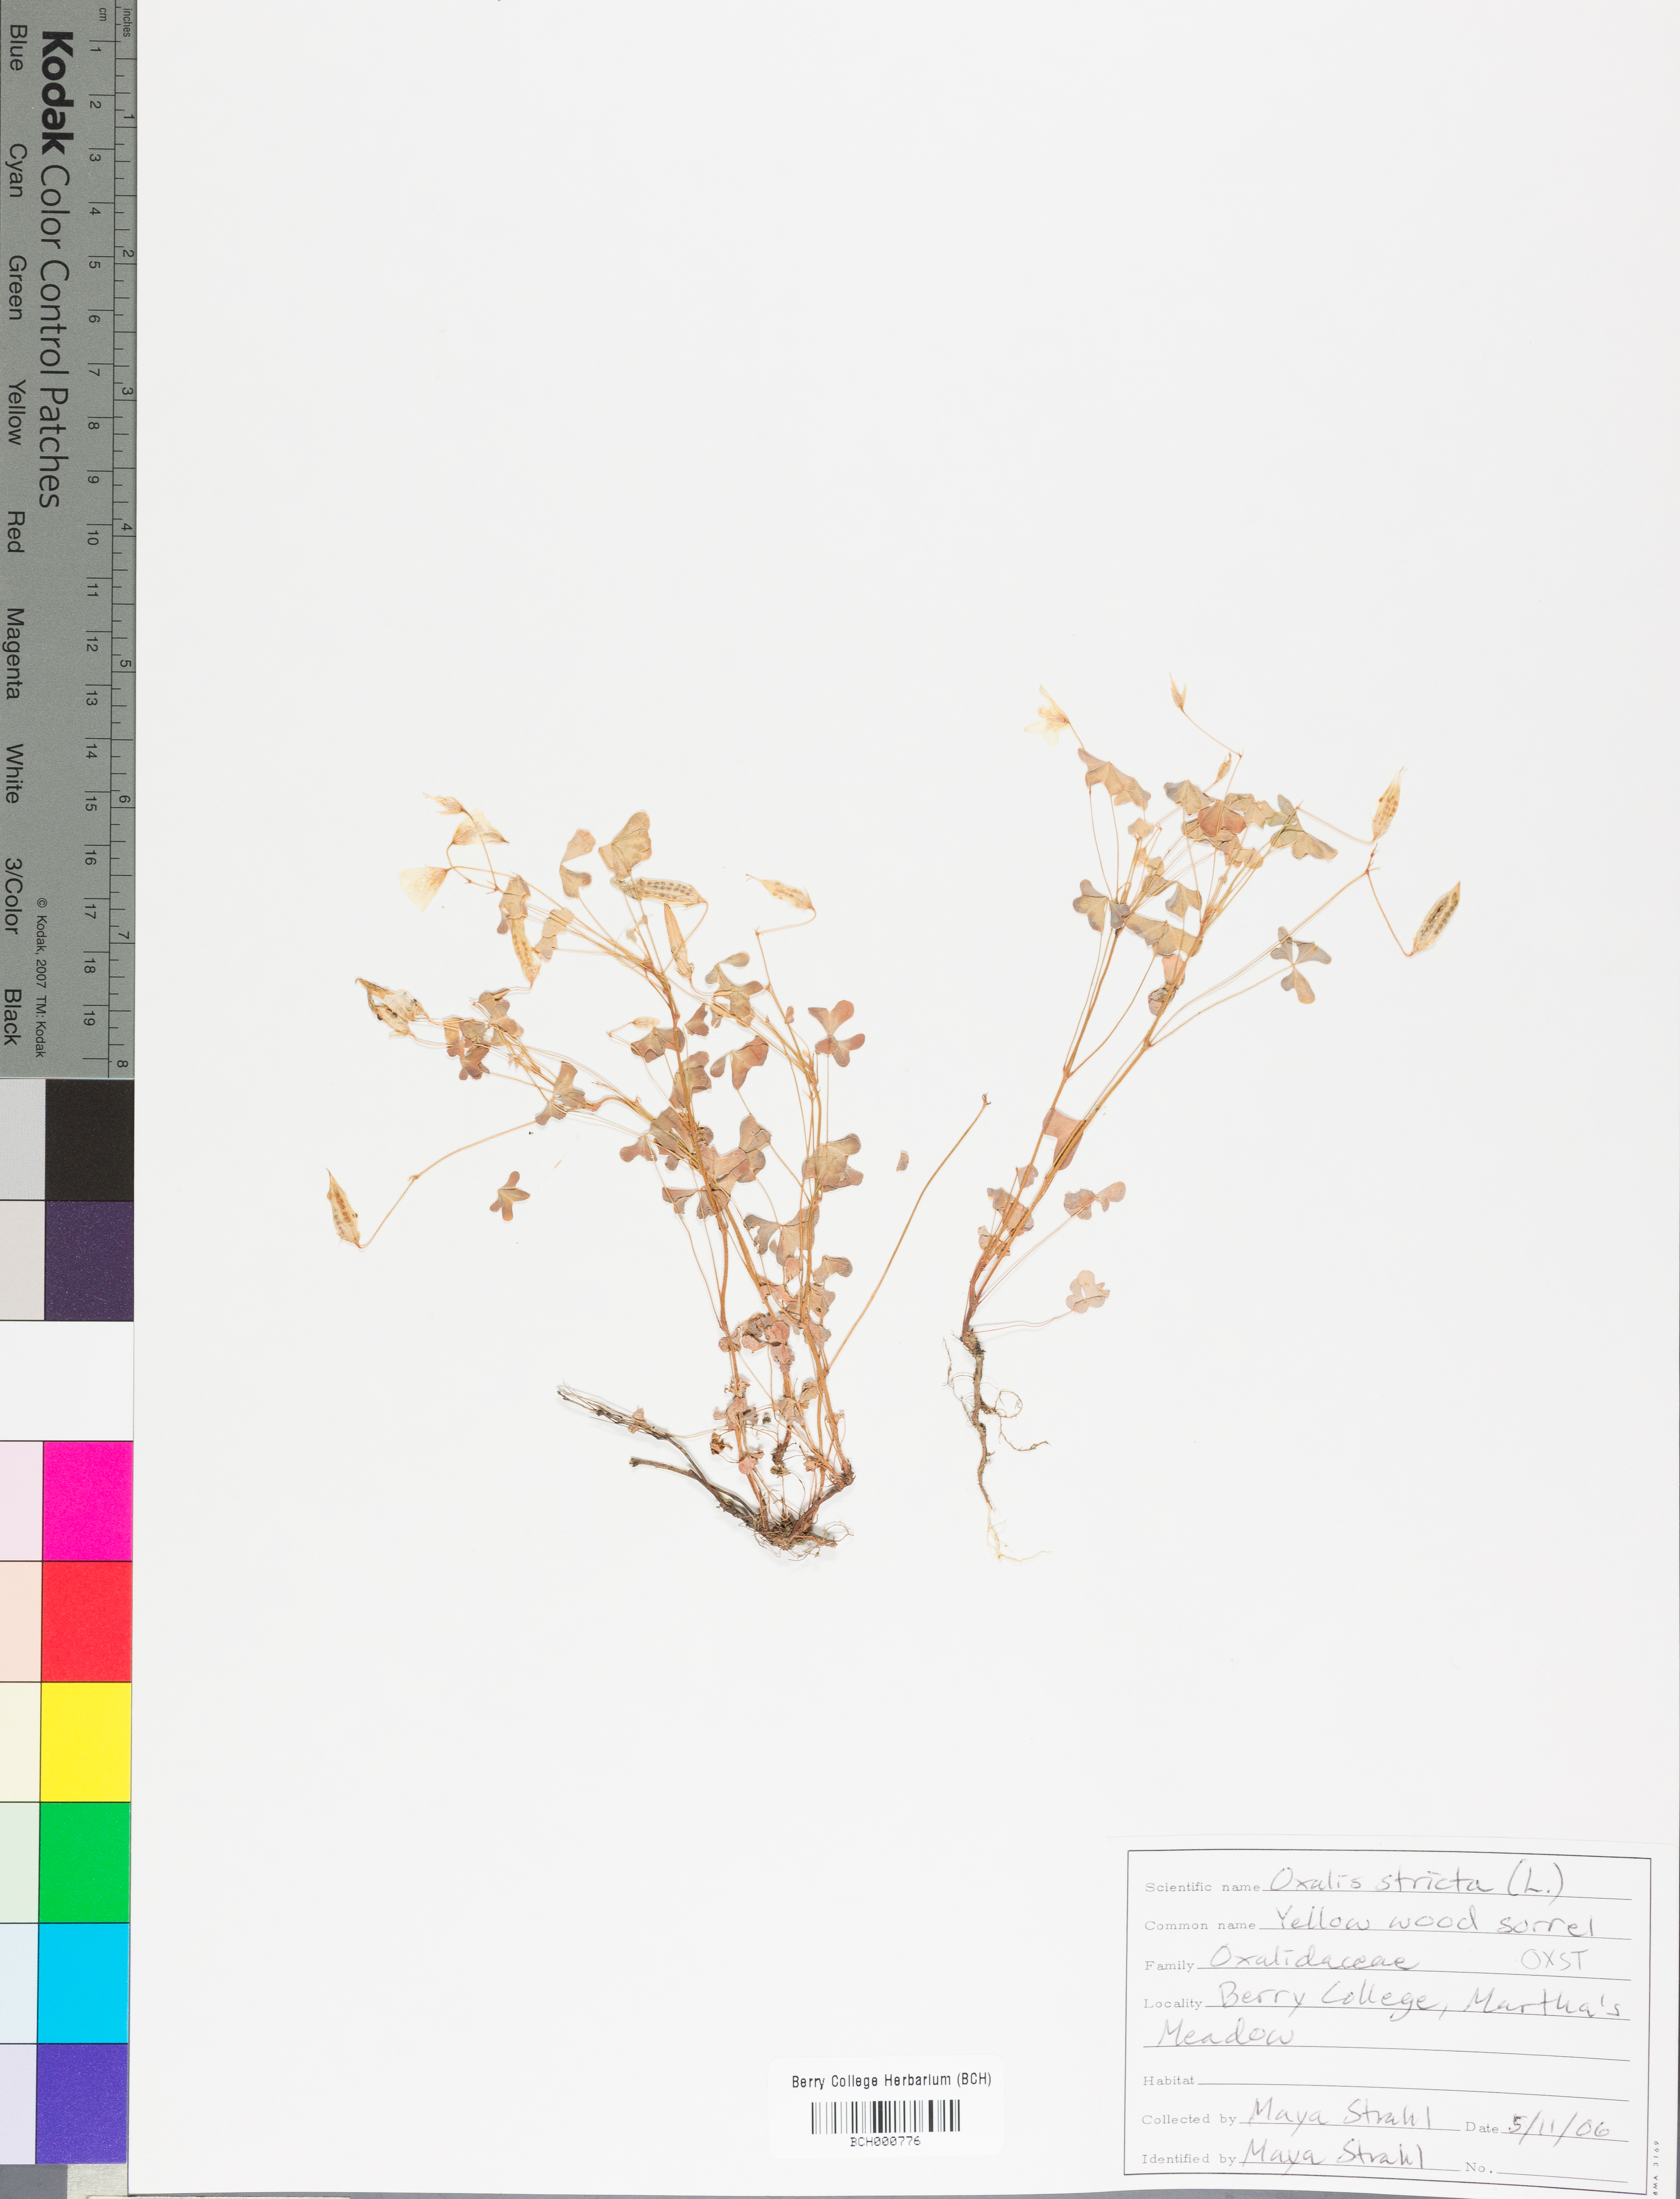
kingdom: Plantae
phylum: Tracheophyta
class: Magnoliopsida
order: Oxalidales
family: Oxalidaceae
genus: Oxalis
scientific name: Oxalis stricta
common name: Upright yellow-sorrel
